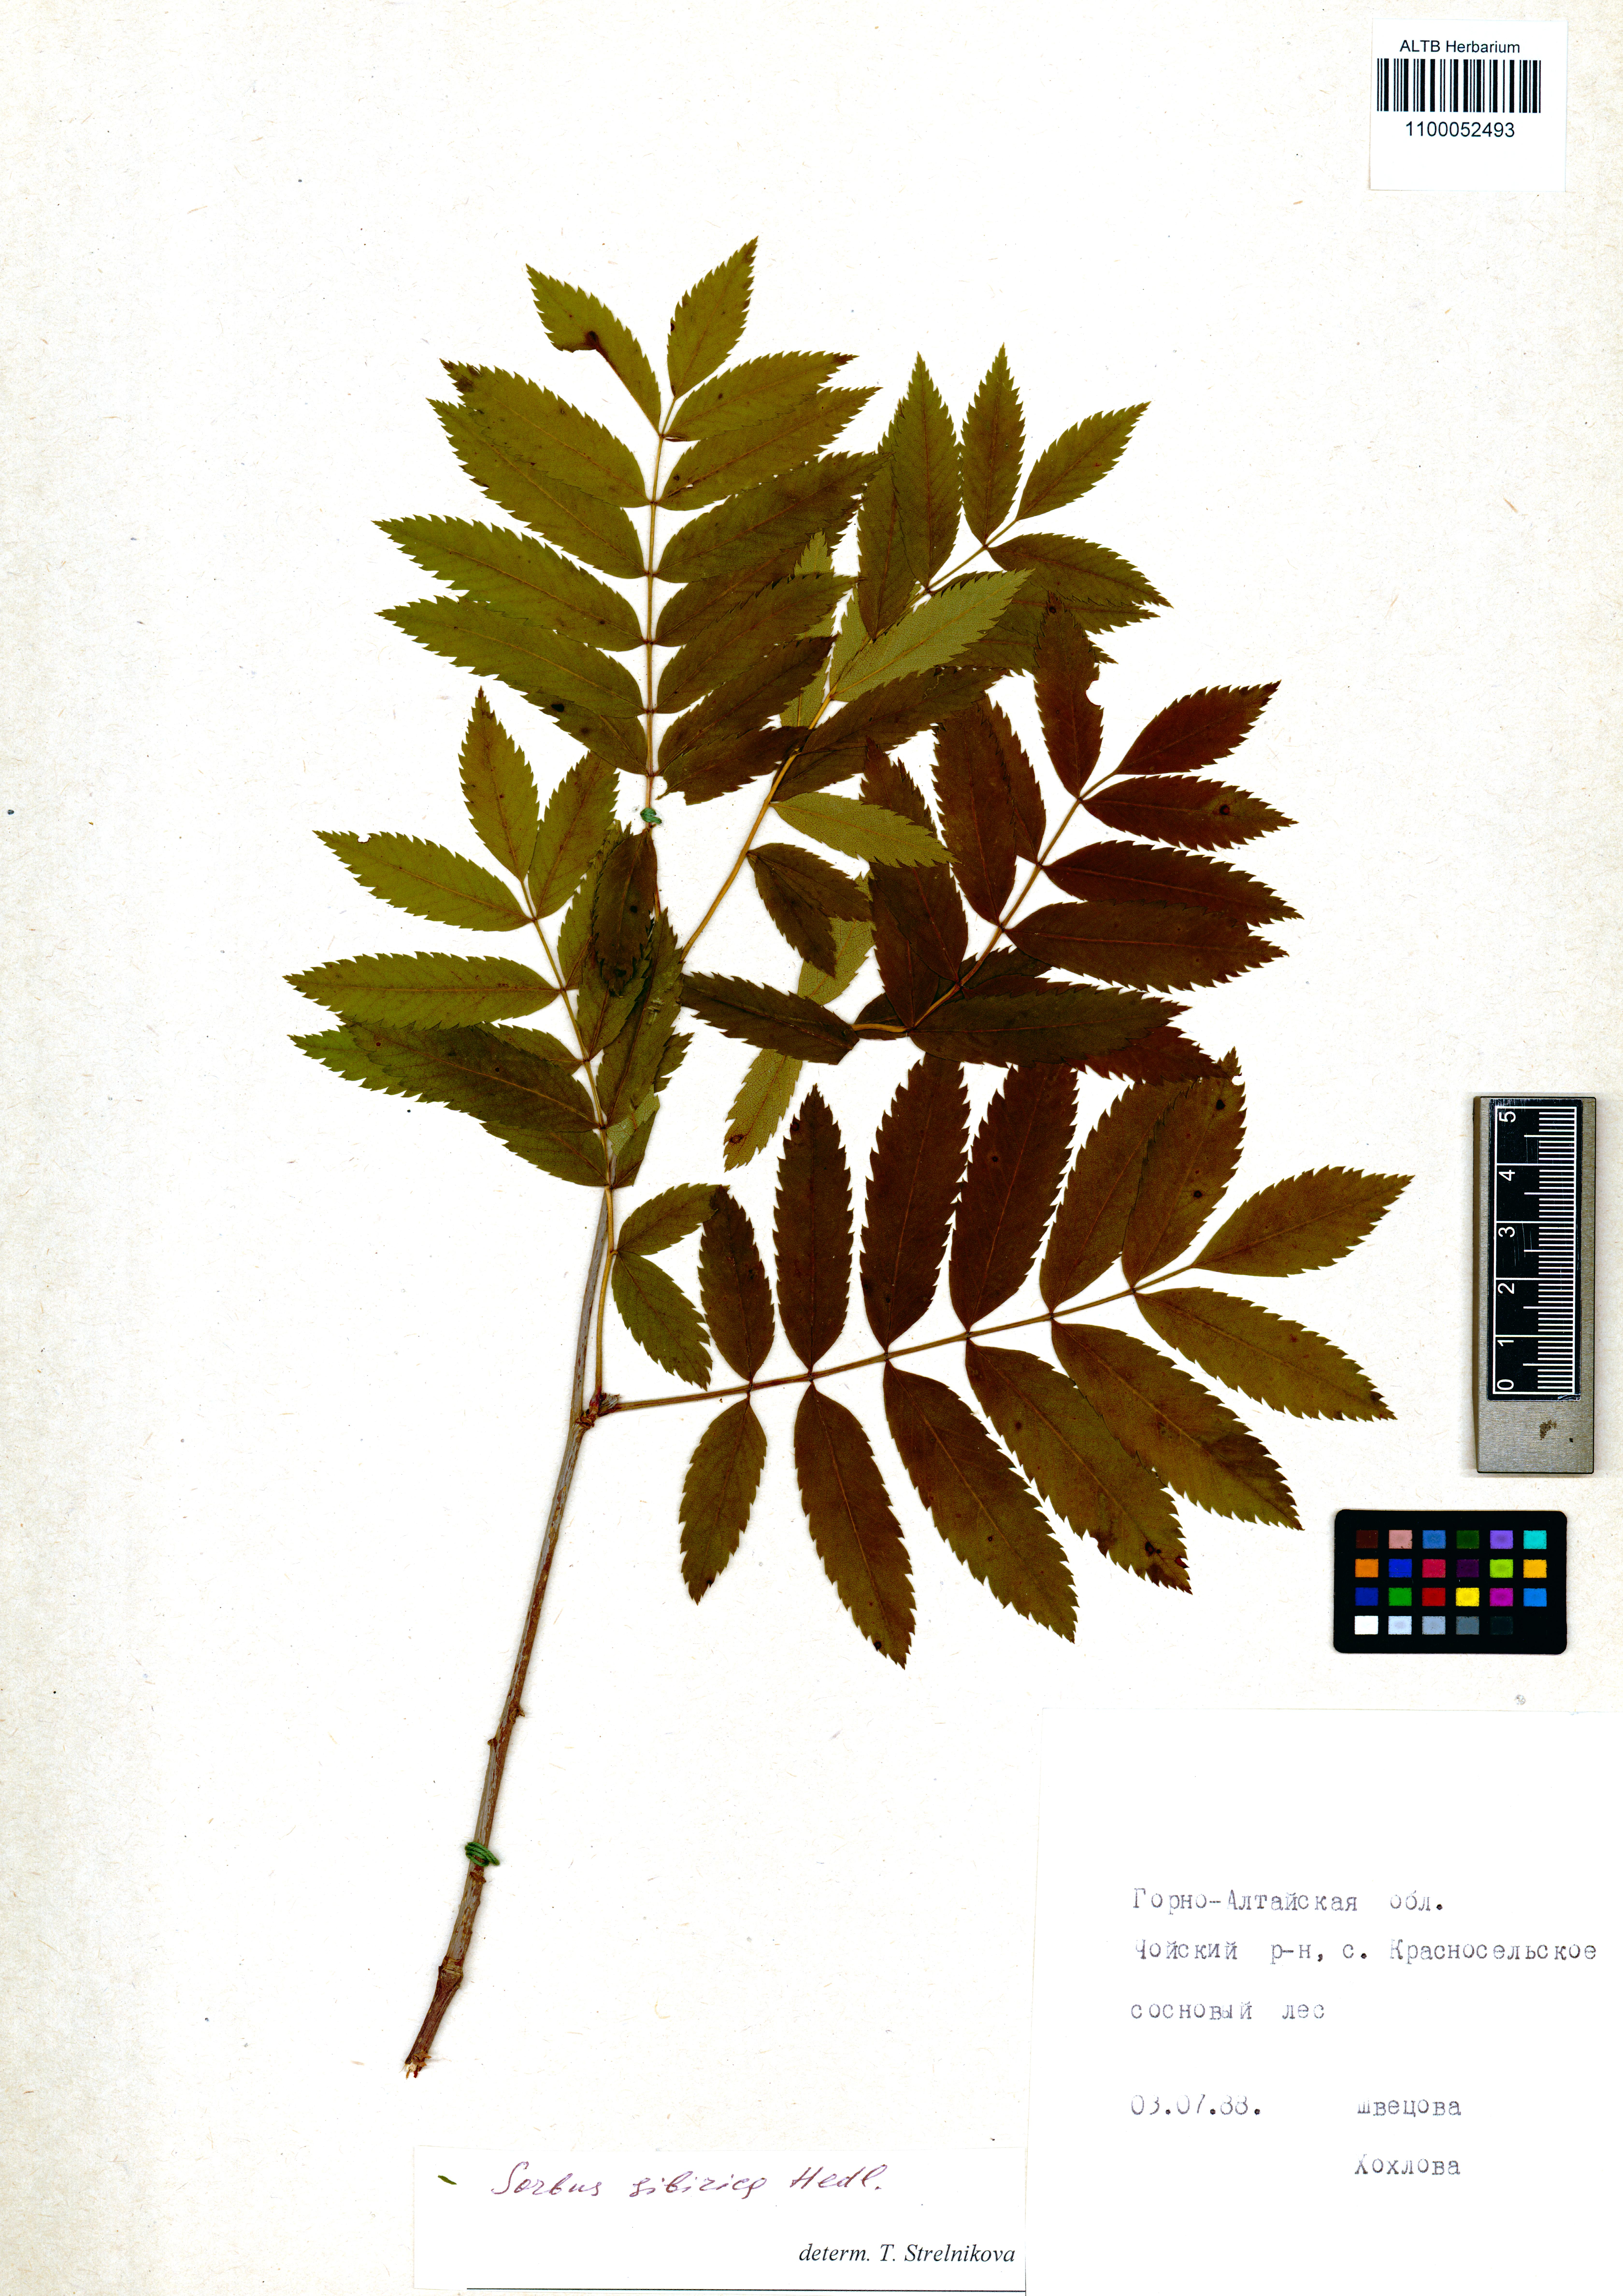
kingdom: Plantae
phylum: Tracheophyta
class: Magnoliopsida
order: Rosales
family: Rosaceae
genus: Sorbus
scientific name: Sorbus aucuparia
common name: Rowan
